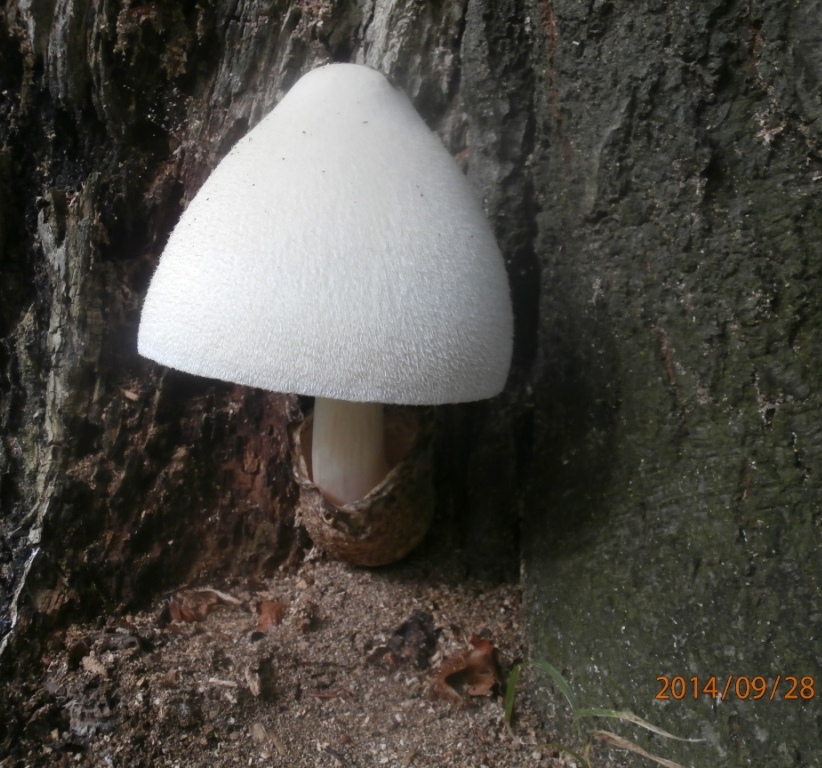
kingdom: Fungi
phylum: Basidiomycota
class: Agaricomycetes
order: Agaricales
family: Pluteaceae
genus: Volvariella
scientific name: Volvariella bombycina
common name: silkehåret posesvamp
